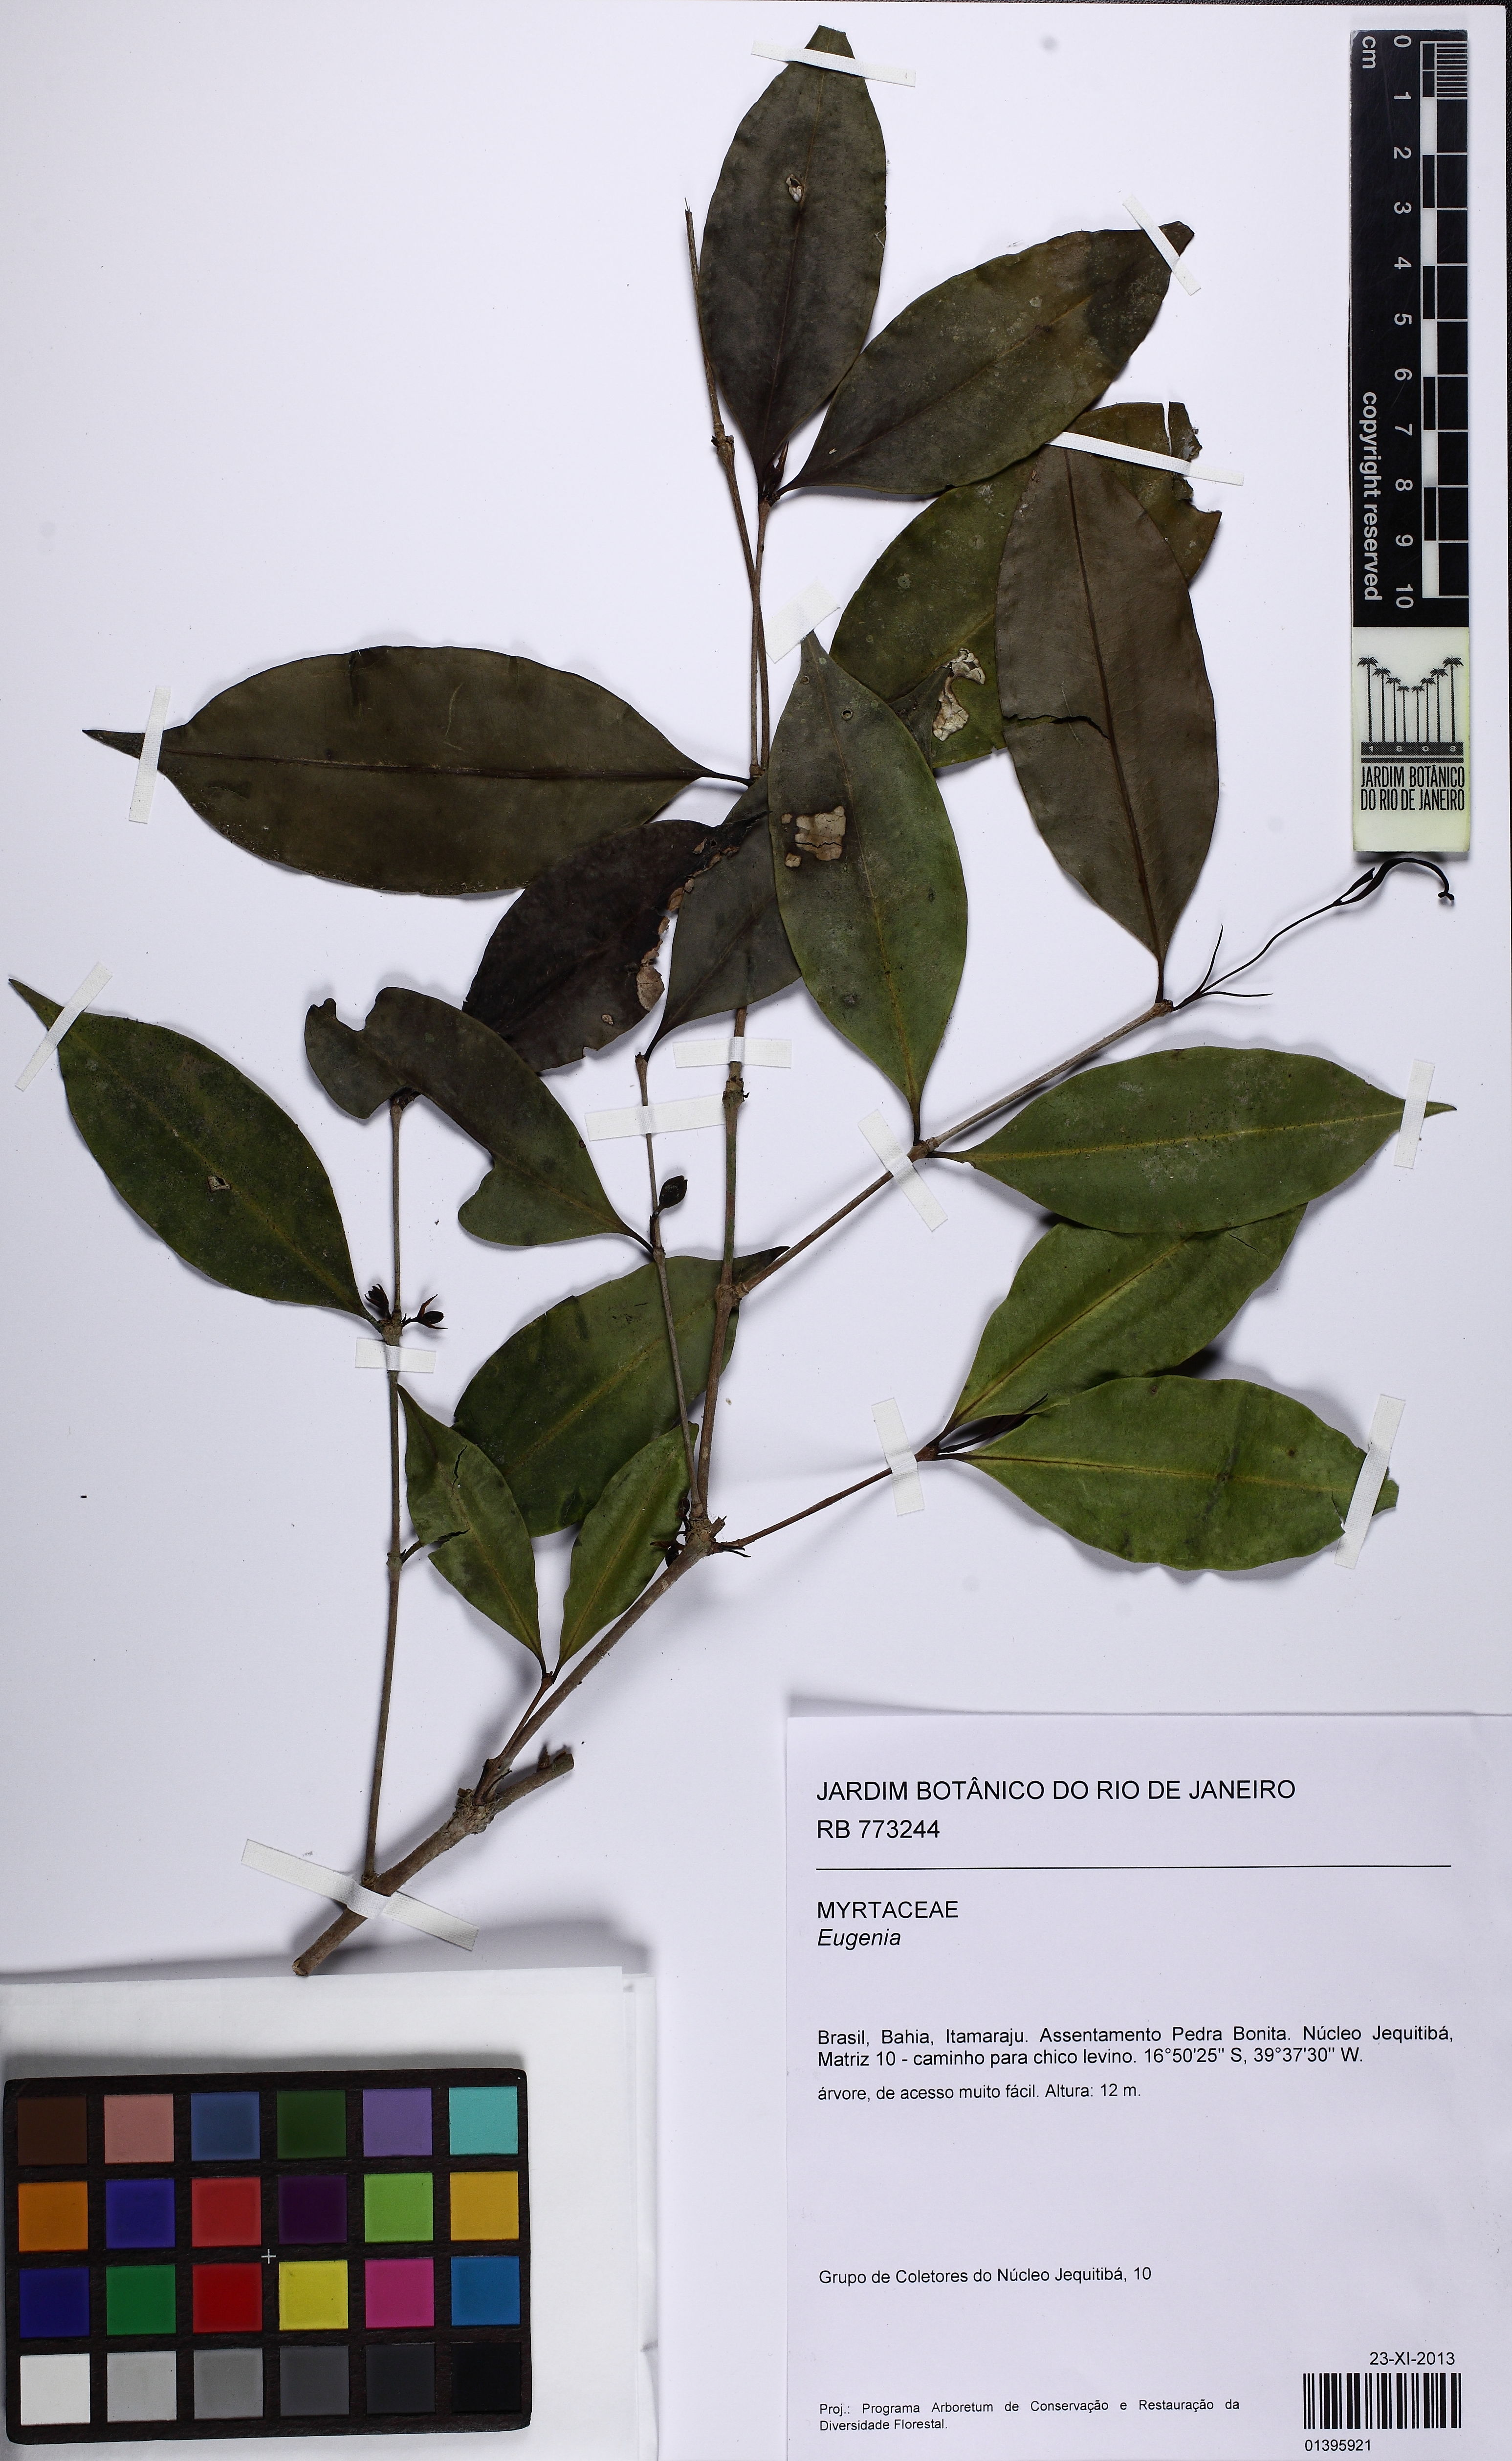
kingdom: Plantae
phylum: Tracheophyta
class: Magnoliopsida
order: Myrtales
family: Myrtaceae
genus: Eugenia
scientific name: Eugenia
